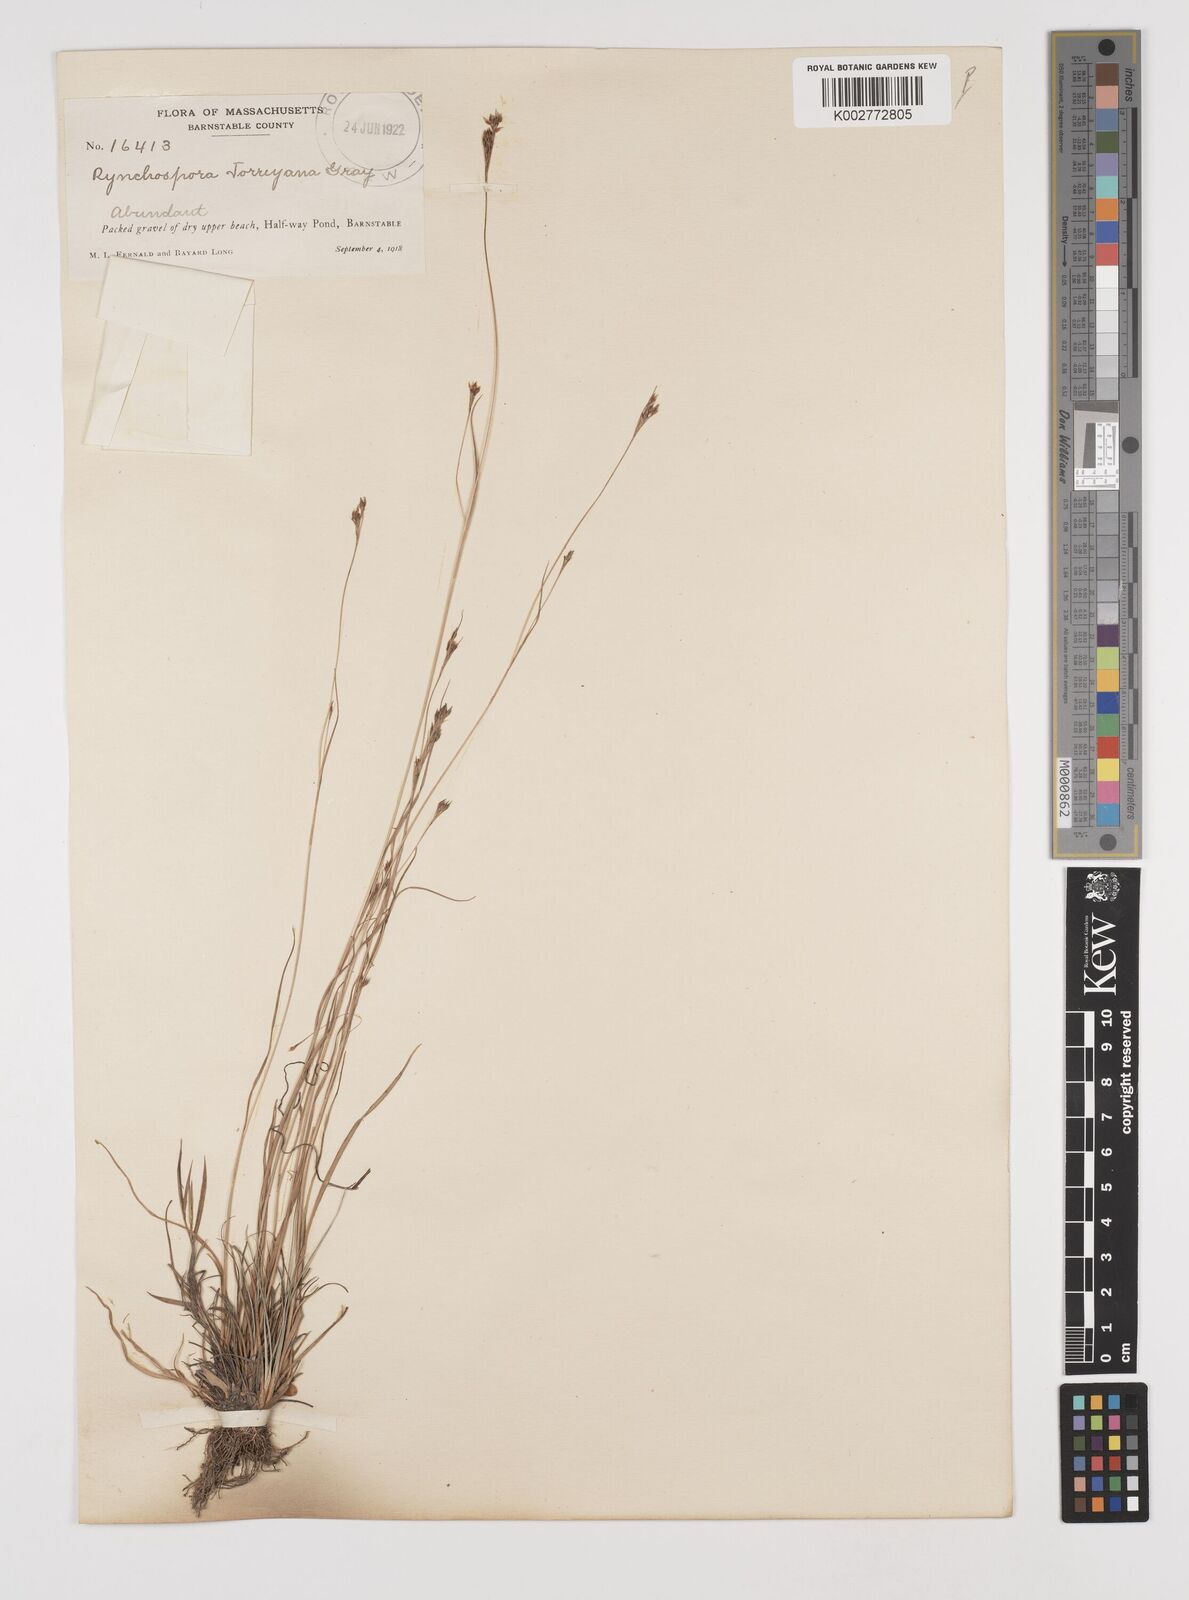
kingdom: Plantae
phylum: Tracheophyta
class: Liliopsida
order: Poales
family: Cyperaceae
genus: Rhynchospora
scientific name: Rhynchospora torreyana
